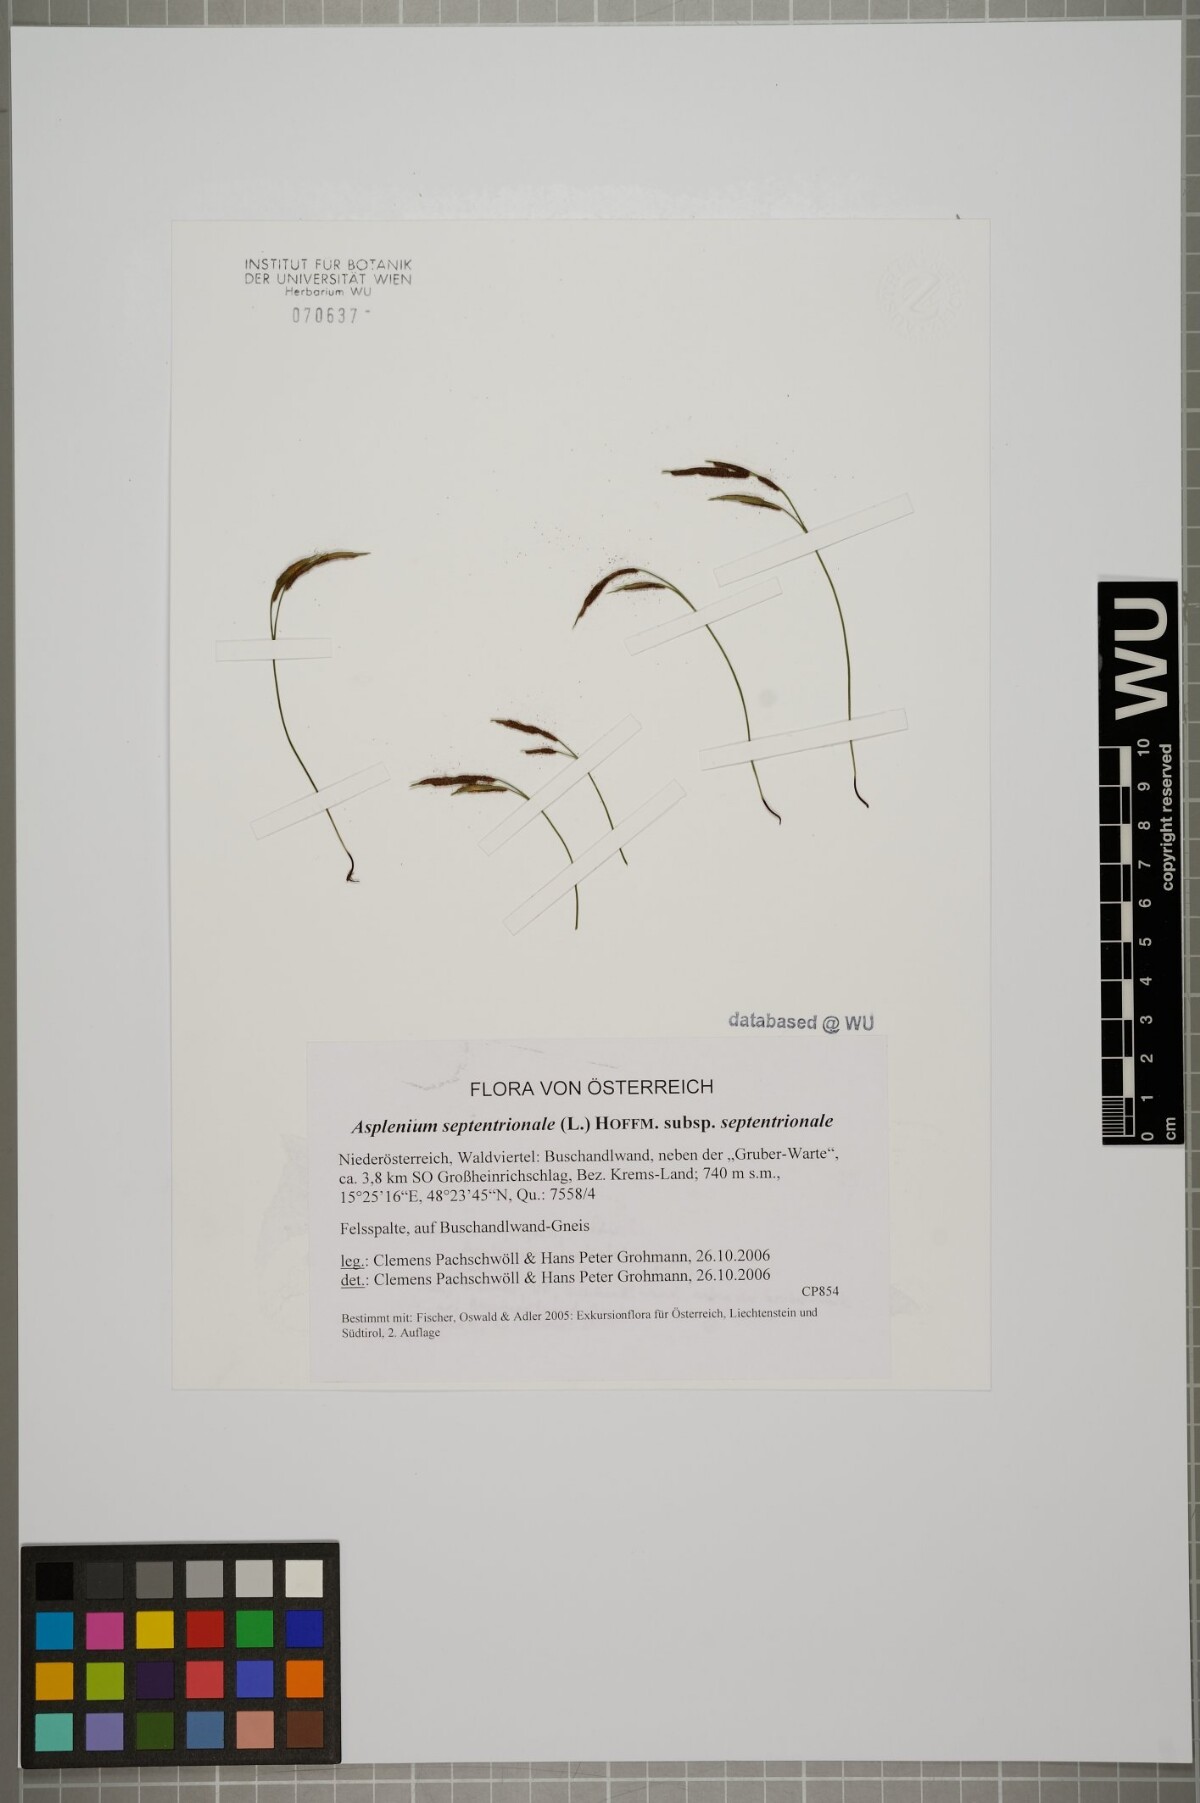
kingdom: Plantae
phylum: Tracheophyta
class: Polypodiopsida
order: Polypodiales
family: Aspleniaceae
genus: Asplenium
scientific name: Asplenium septentrionale
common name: Forked spleenwort
